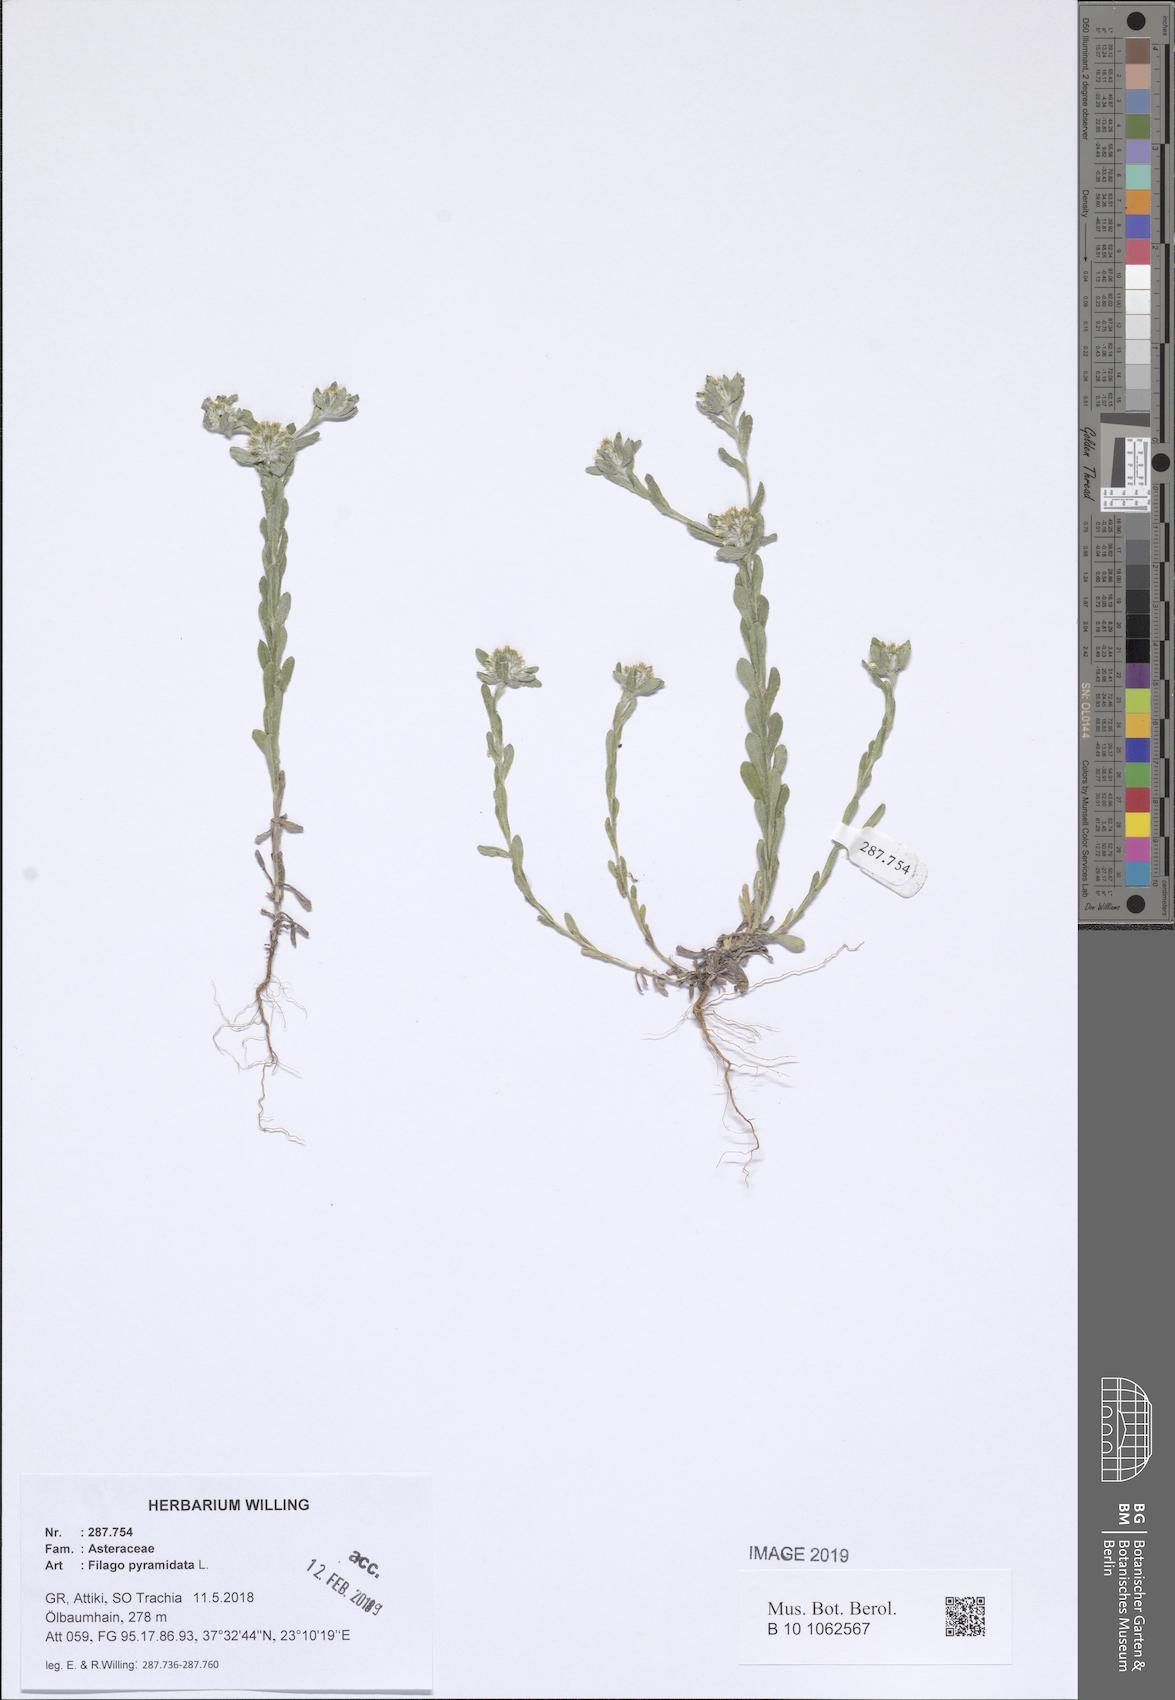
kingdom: Plantae
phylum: Tracheophyta
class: Magnoliopsida
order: Asterales
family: Asteraceae
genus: Filago
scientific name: Filago pyramidata
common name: Broad-leaved cudweed
